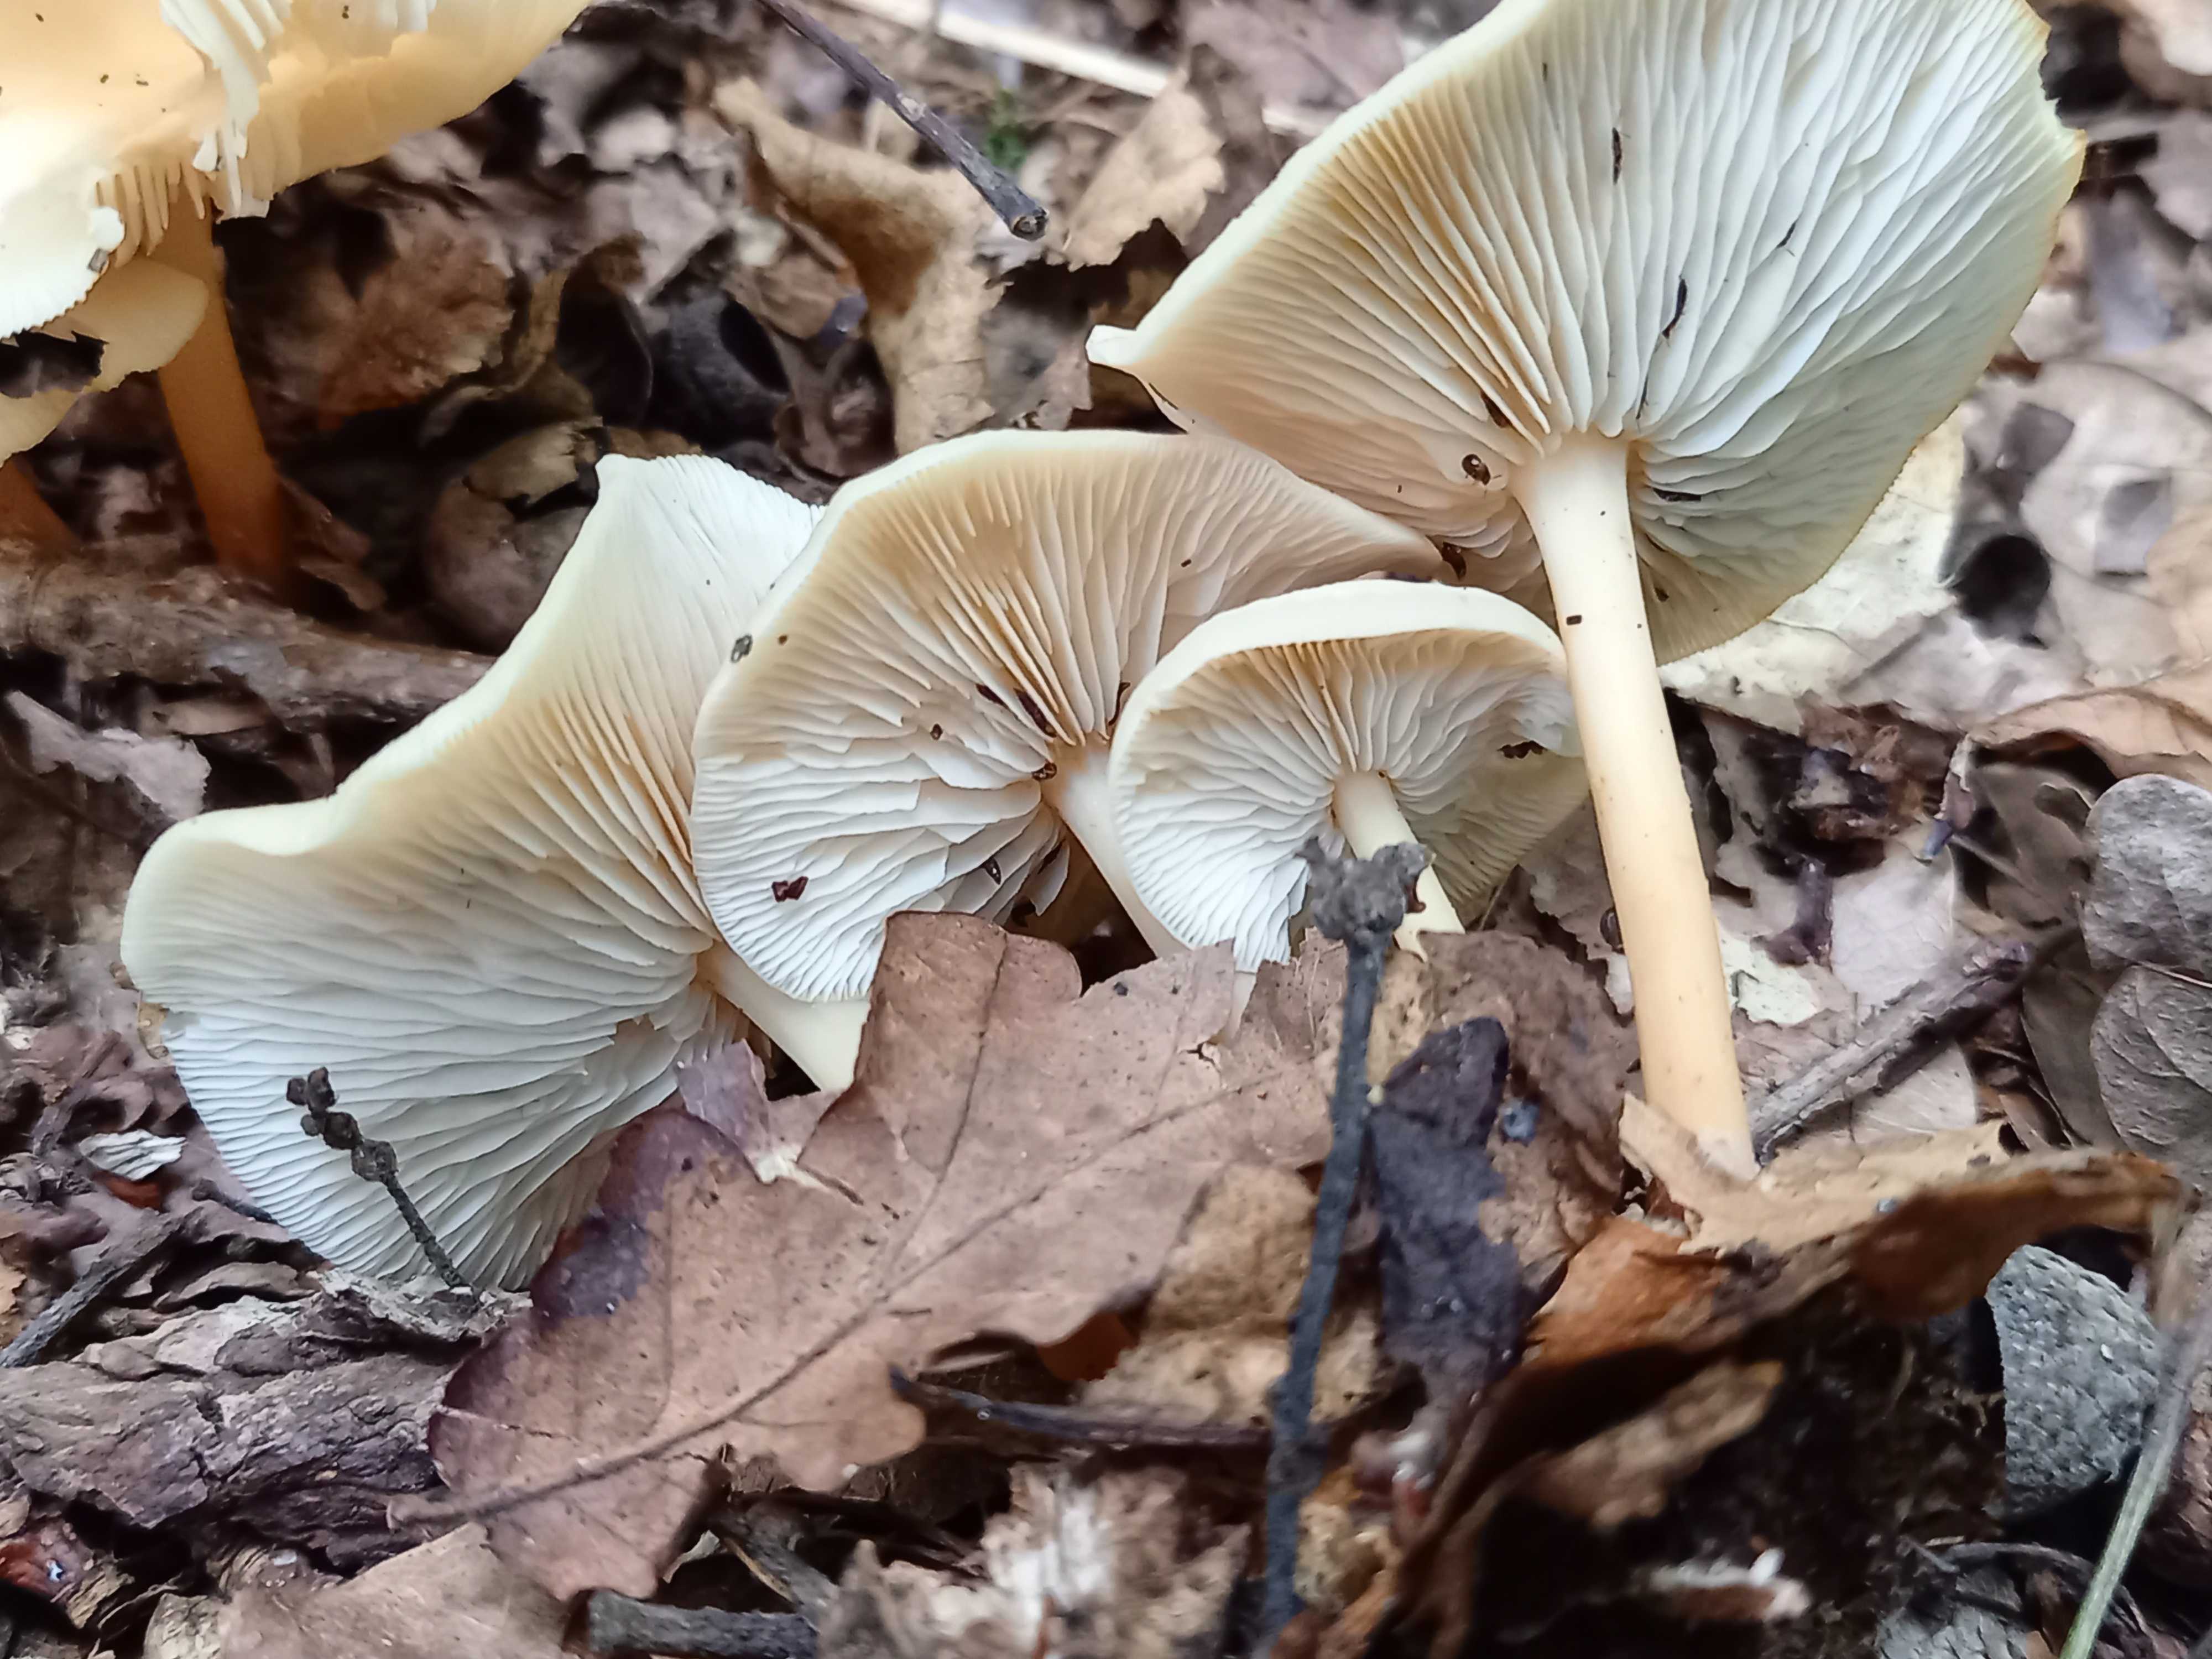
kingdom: Fungi
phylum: Basidiomycota
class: Agaricomycetes
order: Agaricales
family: Omphalotaceae
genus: Gymnopus
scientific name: Gymnopus dryophilus
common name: løv-fladhat
